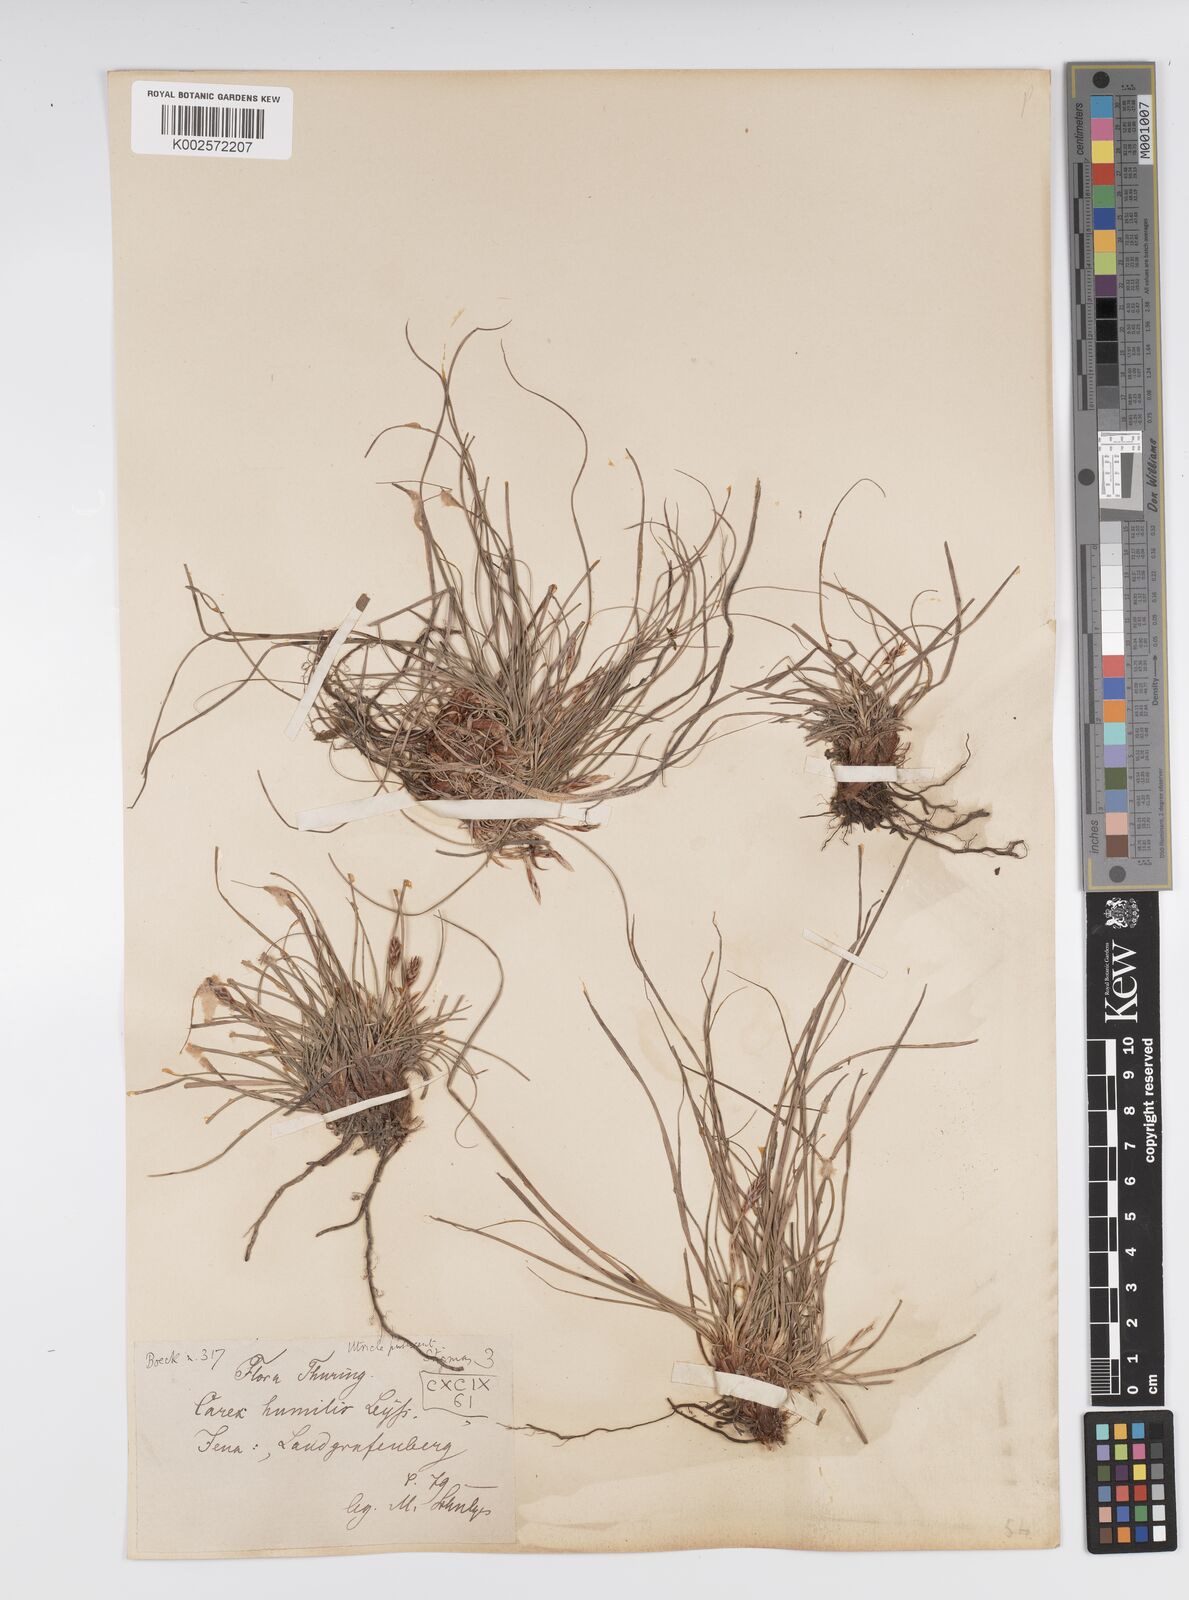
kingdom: Plantae
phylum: Tracheophyta
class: Liliopsida
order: Poales
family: Cyperaceae
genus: Carex
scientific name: Carex humilis
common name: Dwarf sedge
